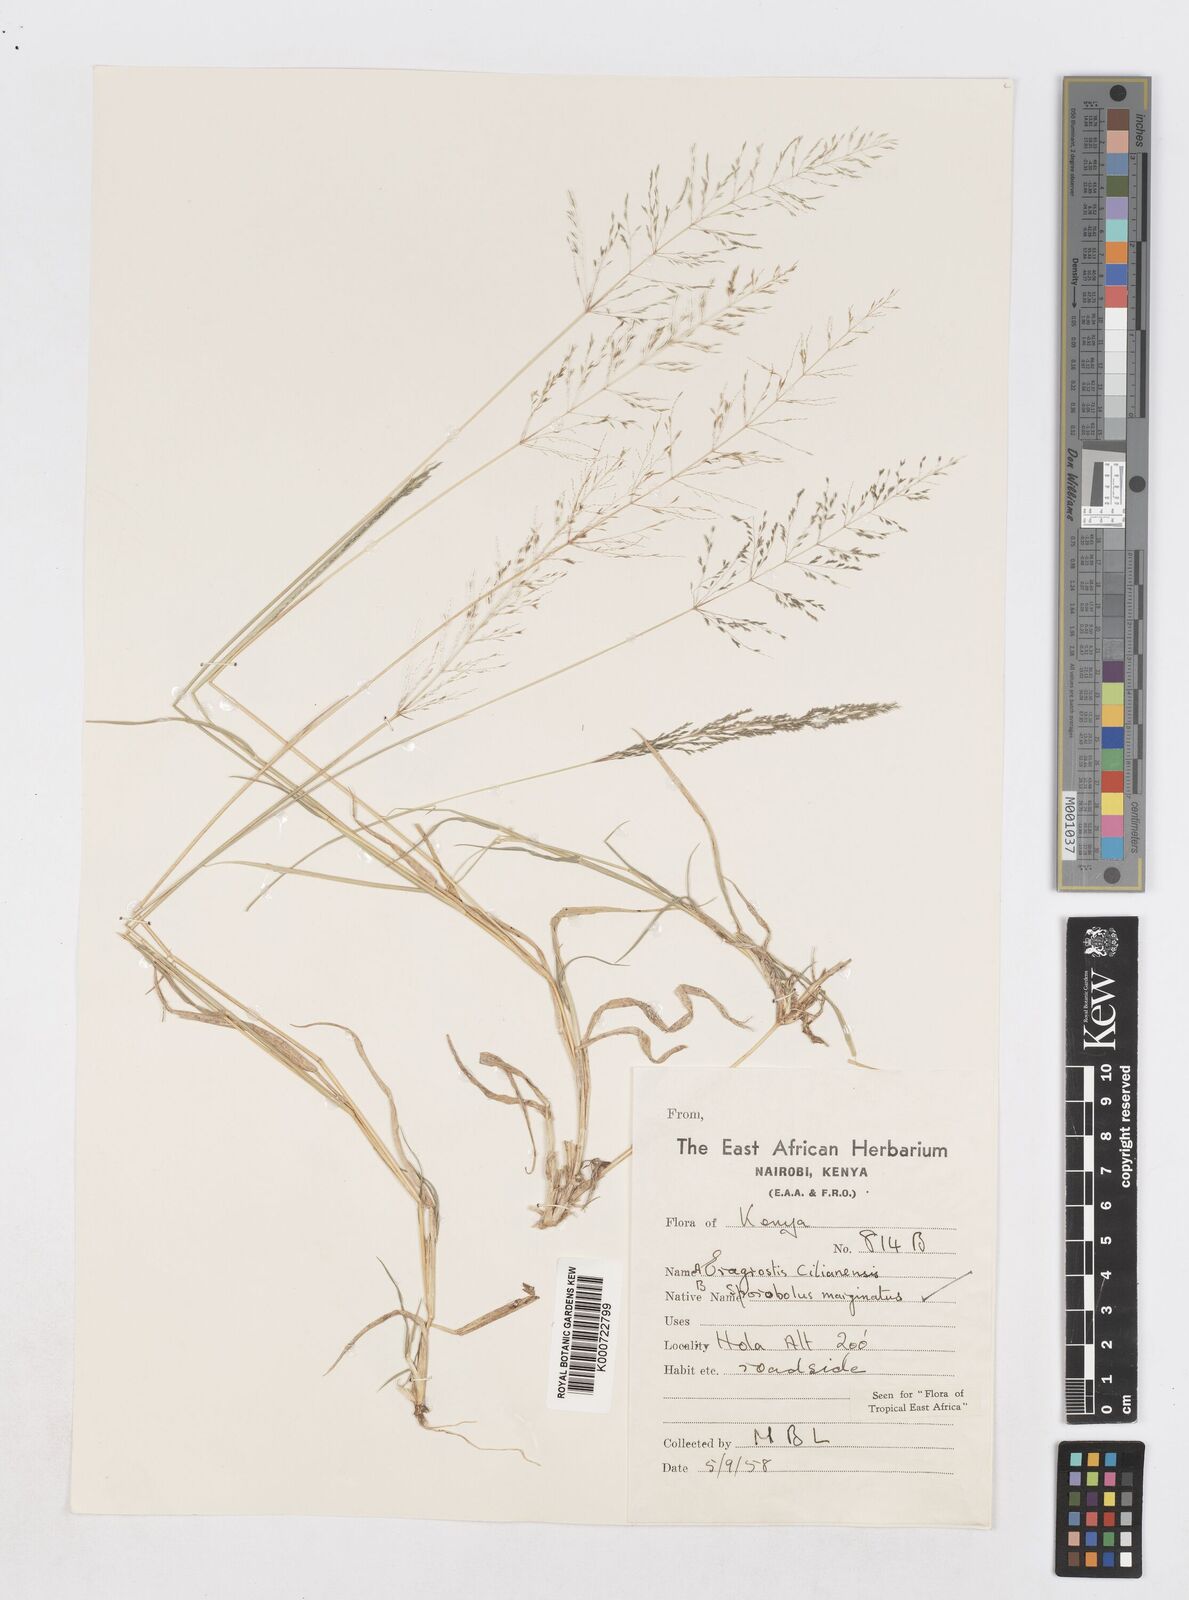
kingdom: Plantae
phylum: Tracheophyta
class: Liliopsida
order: Poales
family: Poaceae
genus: Sporobolus
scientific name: Sporobolus ioclados
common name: Pan dropseed
